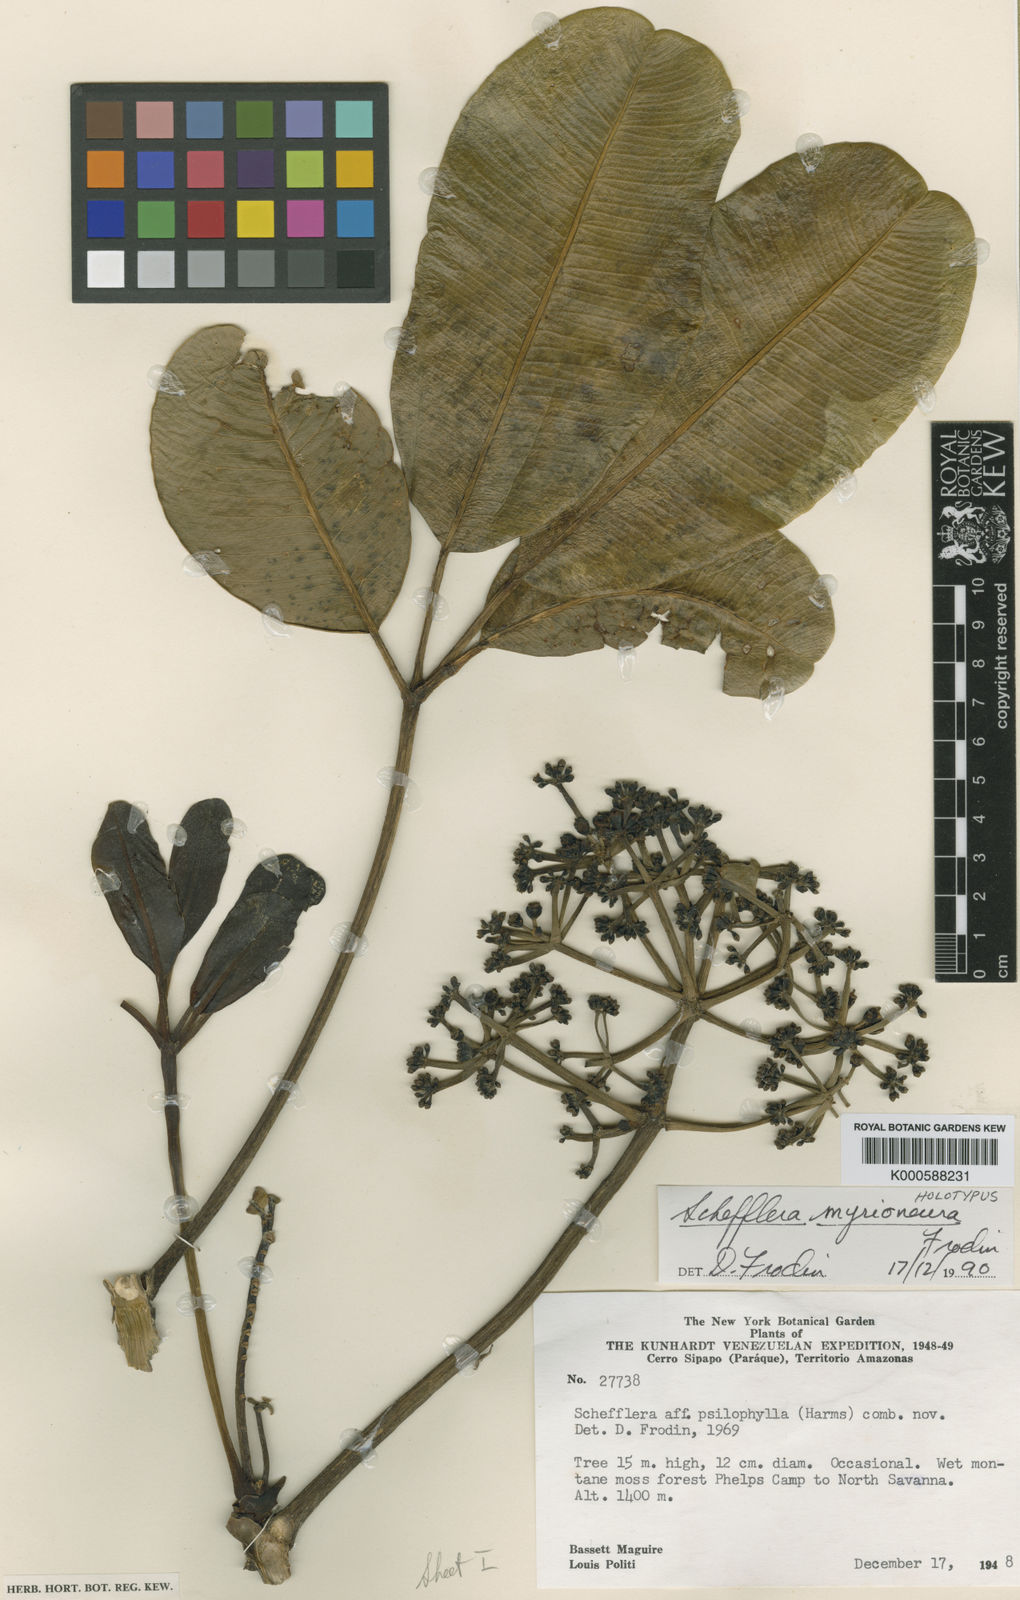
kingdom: Plantae
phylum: Tracheophyta
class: Magnoliopsida
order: Apiales
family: Araliaceae
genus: Crepinella
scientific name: Crepinella
